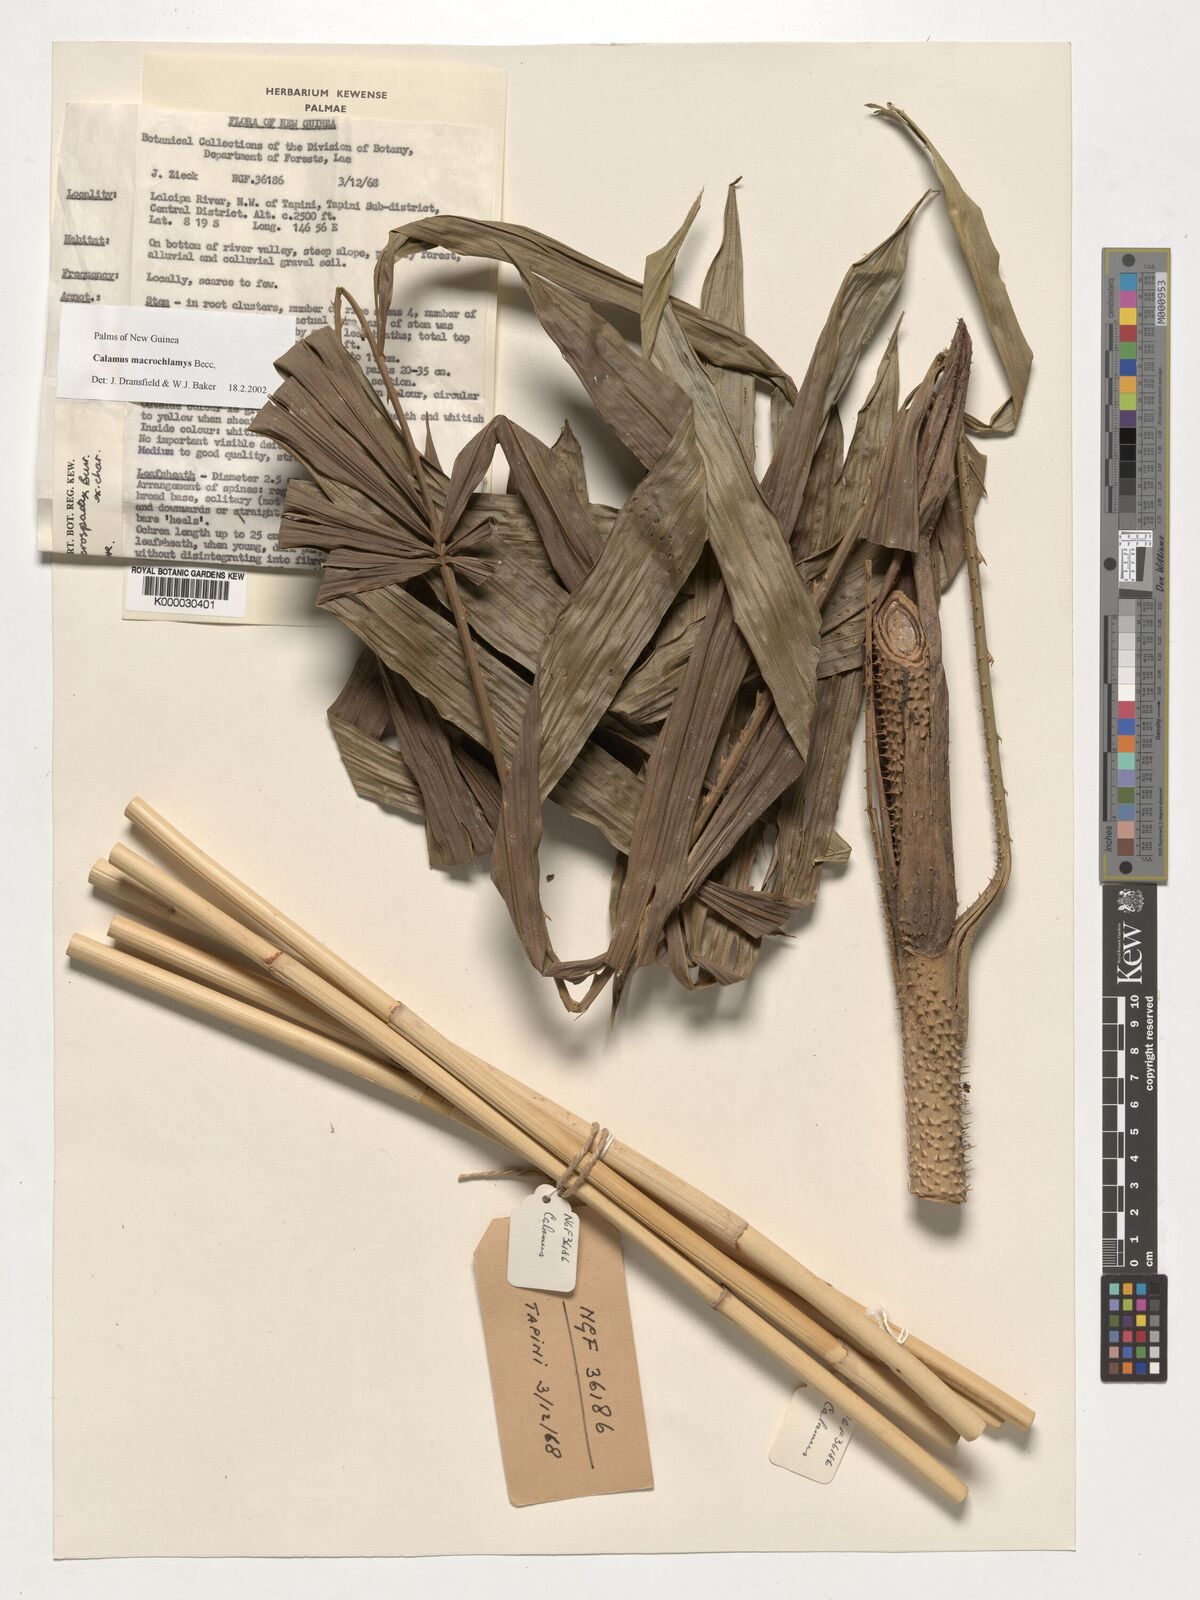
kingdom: Plantae
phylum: Tracheophyta
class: Liliopsida
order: Arecales
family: Arecaceae
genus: Calamus
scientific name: Calamus macrochlamys
